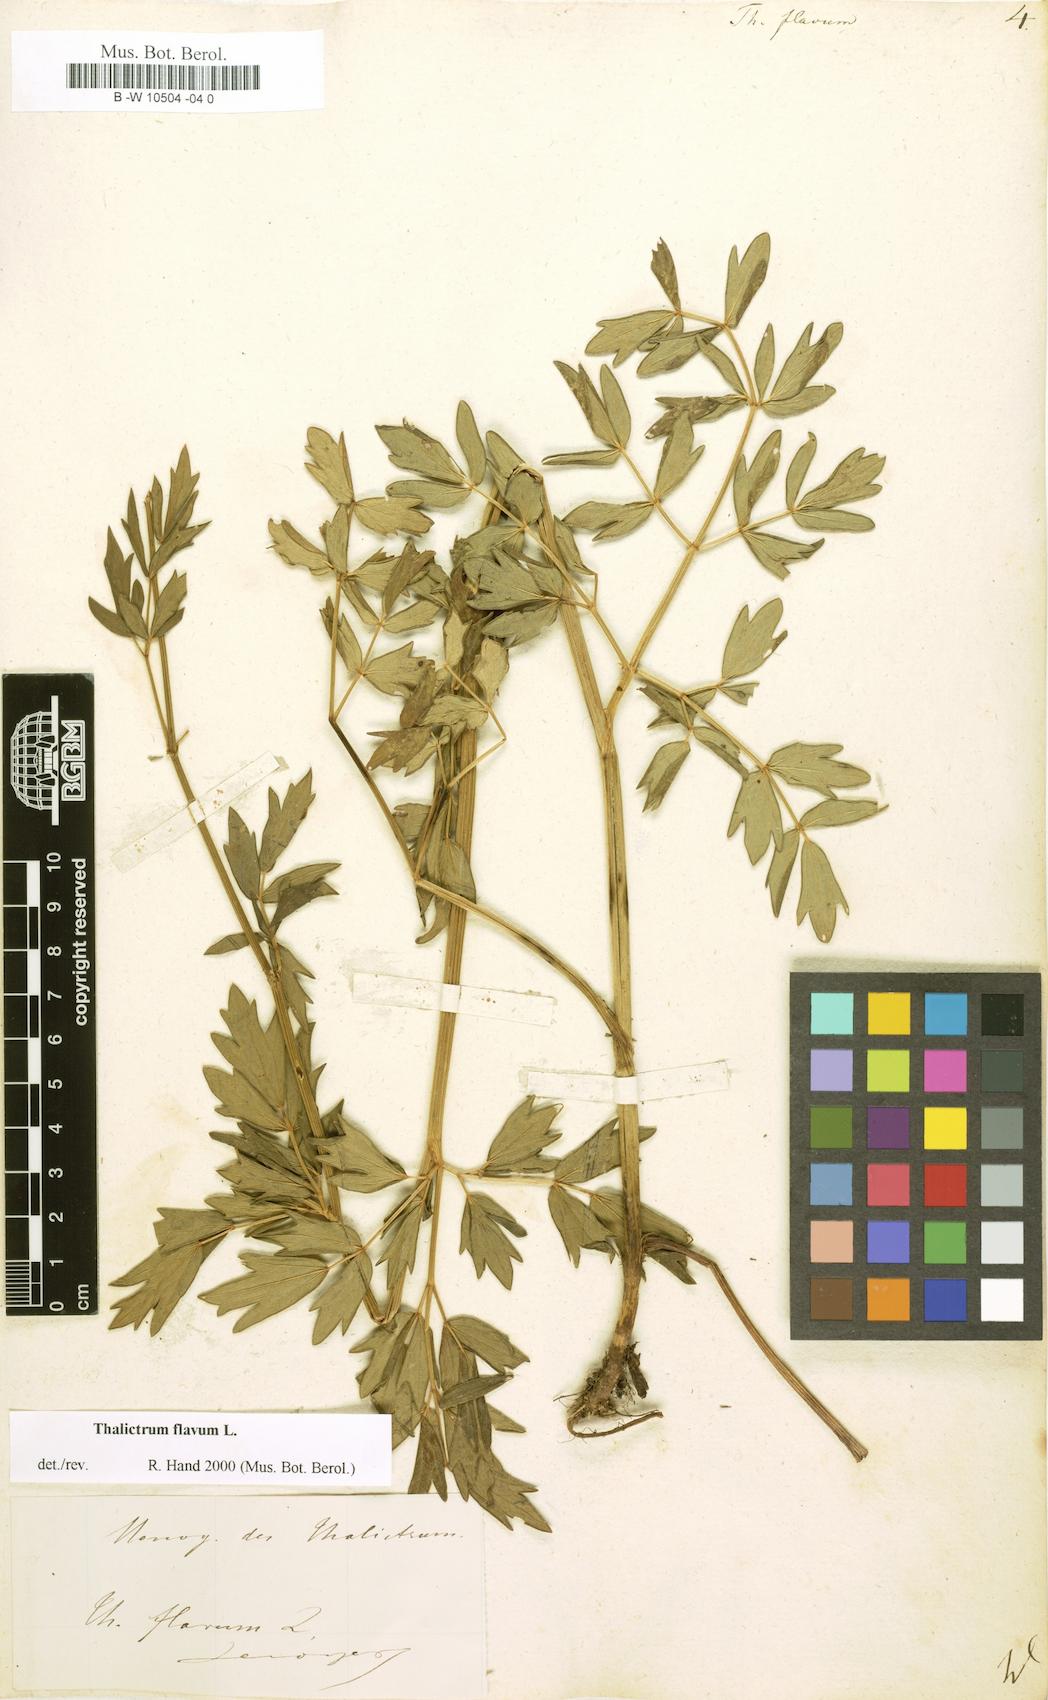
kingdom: Plantae
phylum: Tracheophyta
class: Magnoliopsida
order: Ranunculales
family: Ranunculaceae
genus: Thalictrum
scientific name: Thalictrum flavum
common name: Common meadow-rue
